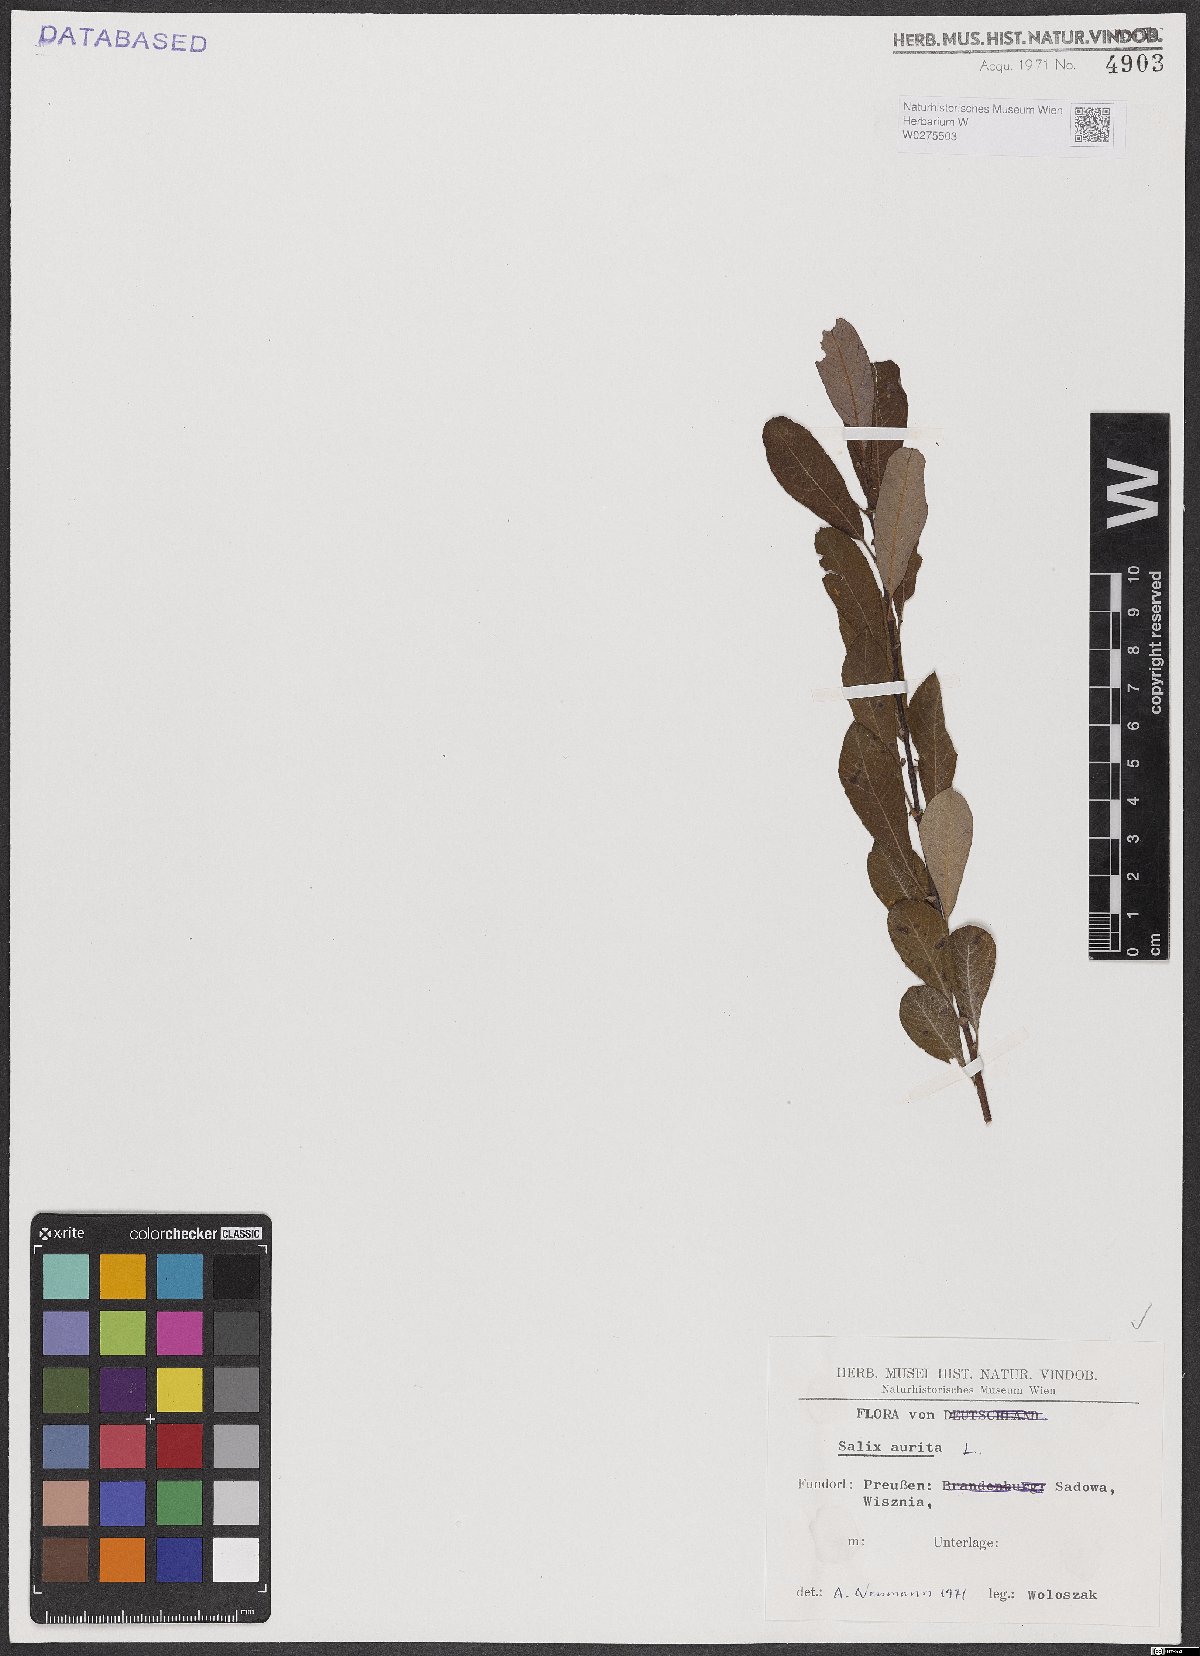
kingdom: Plantae
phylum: Tracheophyta
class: Magnoliopsida
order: Malpighiales
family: Salicaceae
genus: Salix
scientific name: Salix aurita
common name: Eared willow
